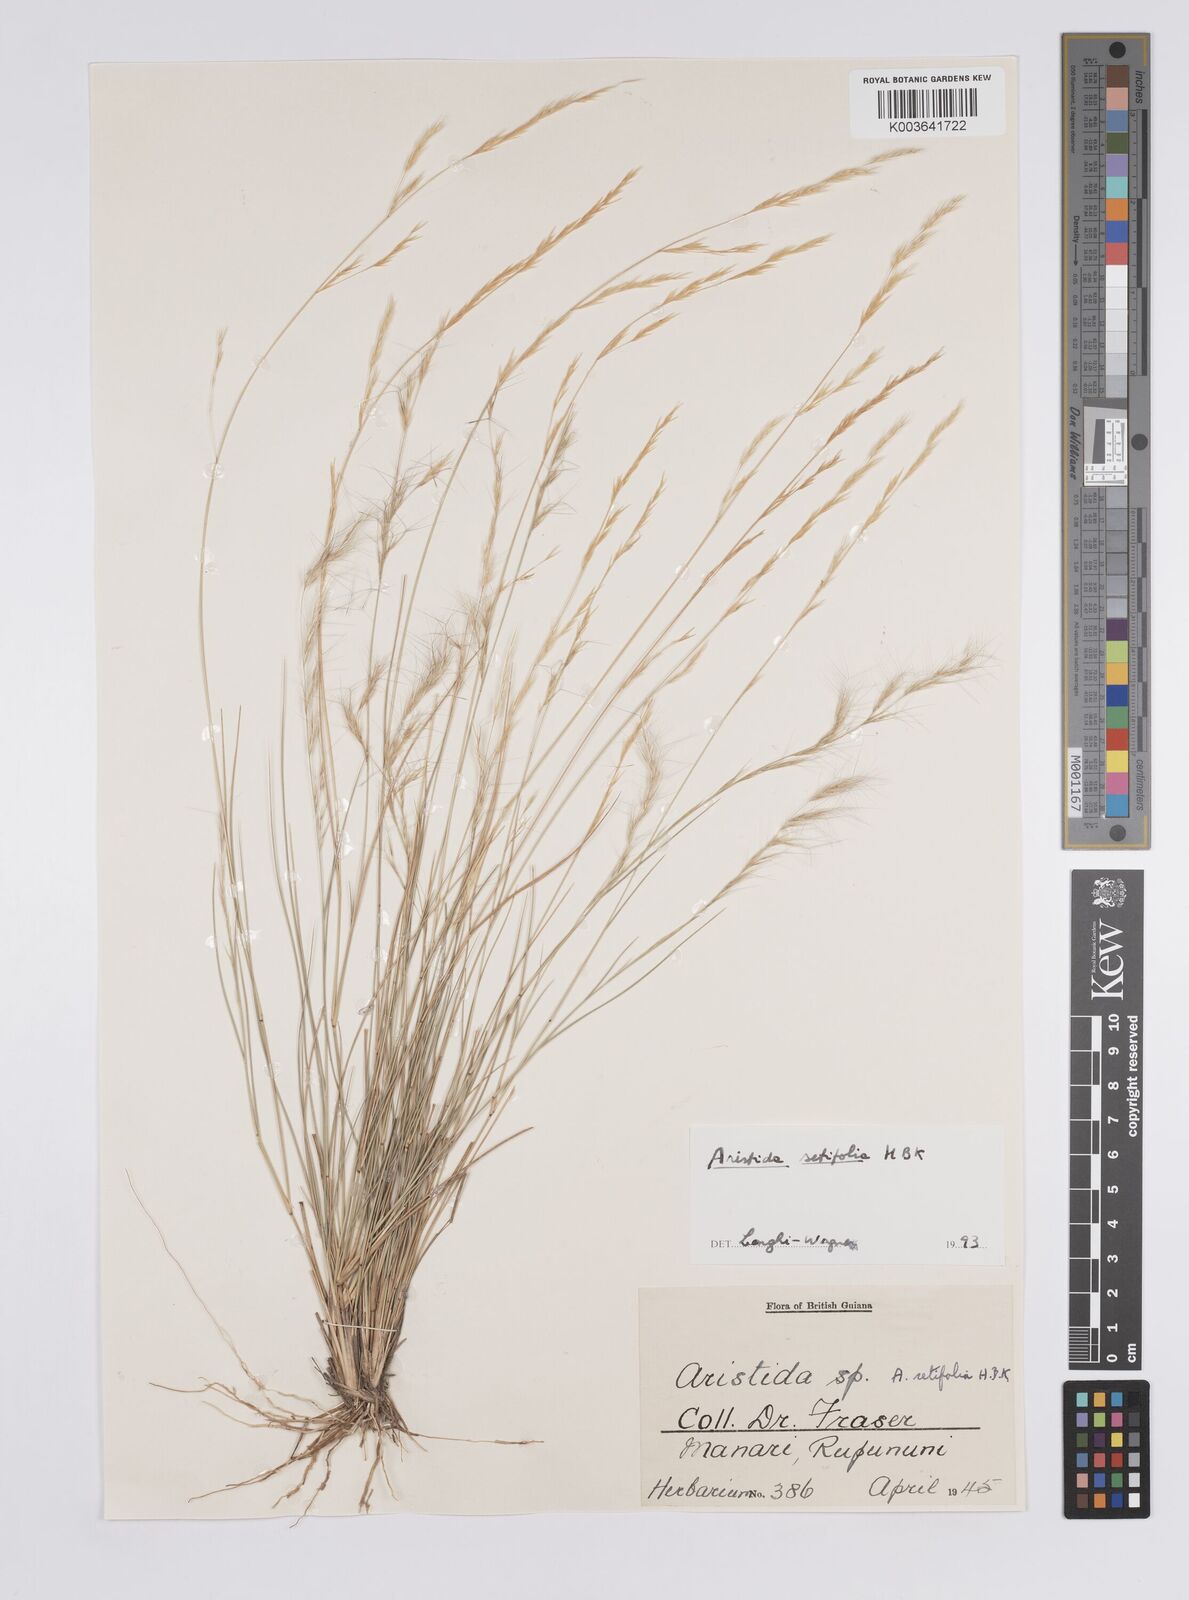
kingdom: Plantae
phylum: Tracheophyta
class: Liliopsida
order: Poales
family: Poaceae
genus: Aristida
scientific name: Aristida setifolia
